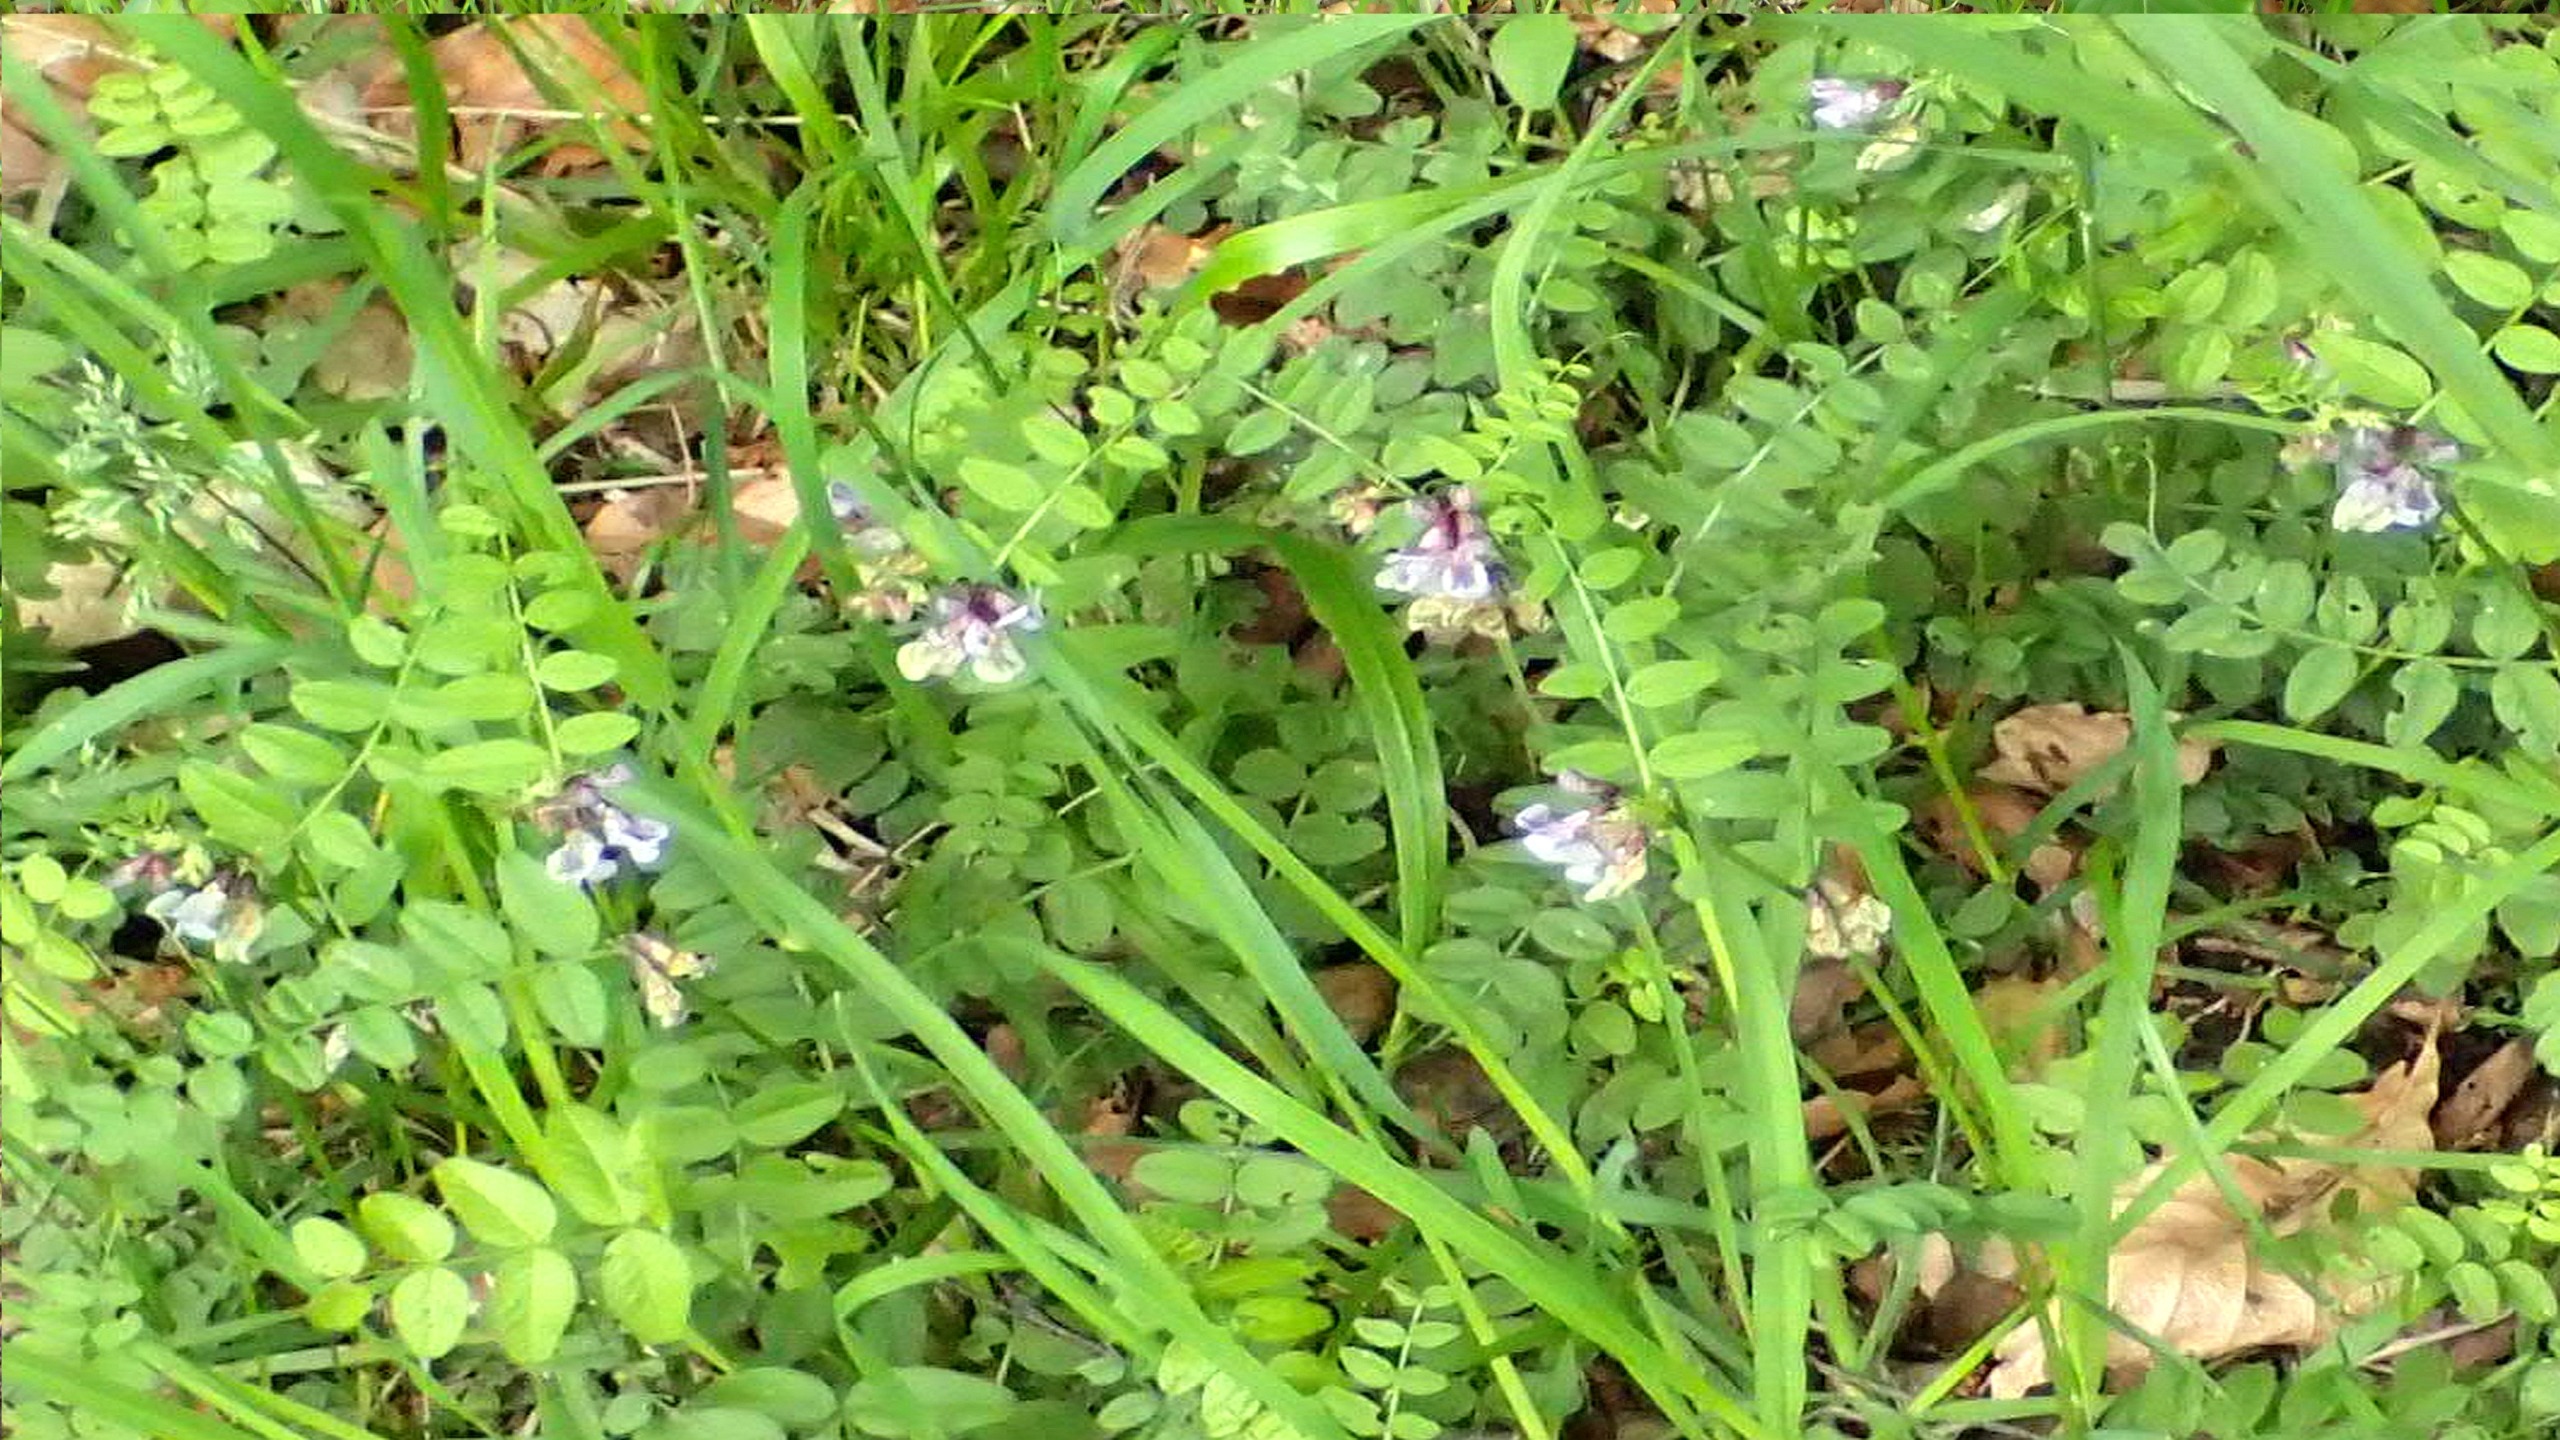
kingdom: Plantae
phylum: Tracheophyta
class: Magnoliopsida
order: Fabales
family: Fabaceae
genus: Vicia
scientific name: Vicia sepium
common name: Gærde-vikke
